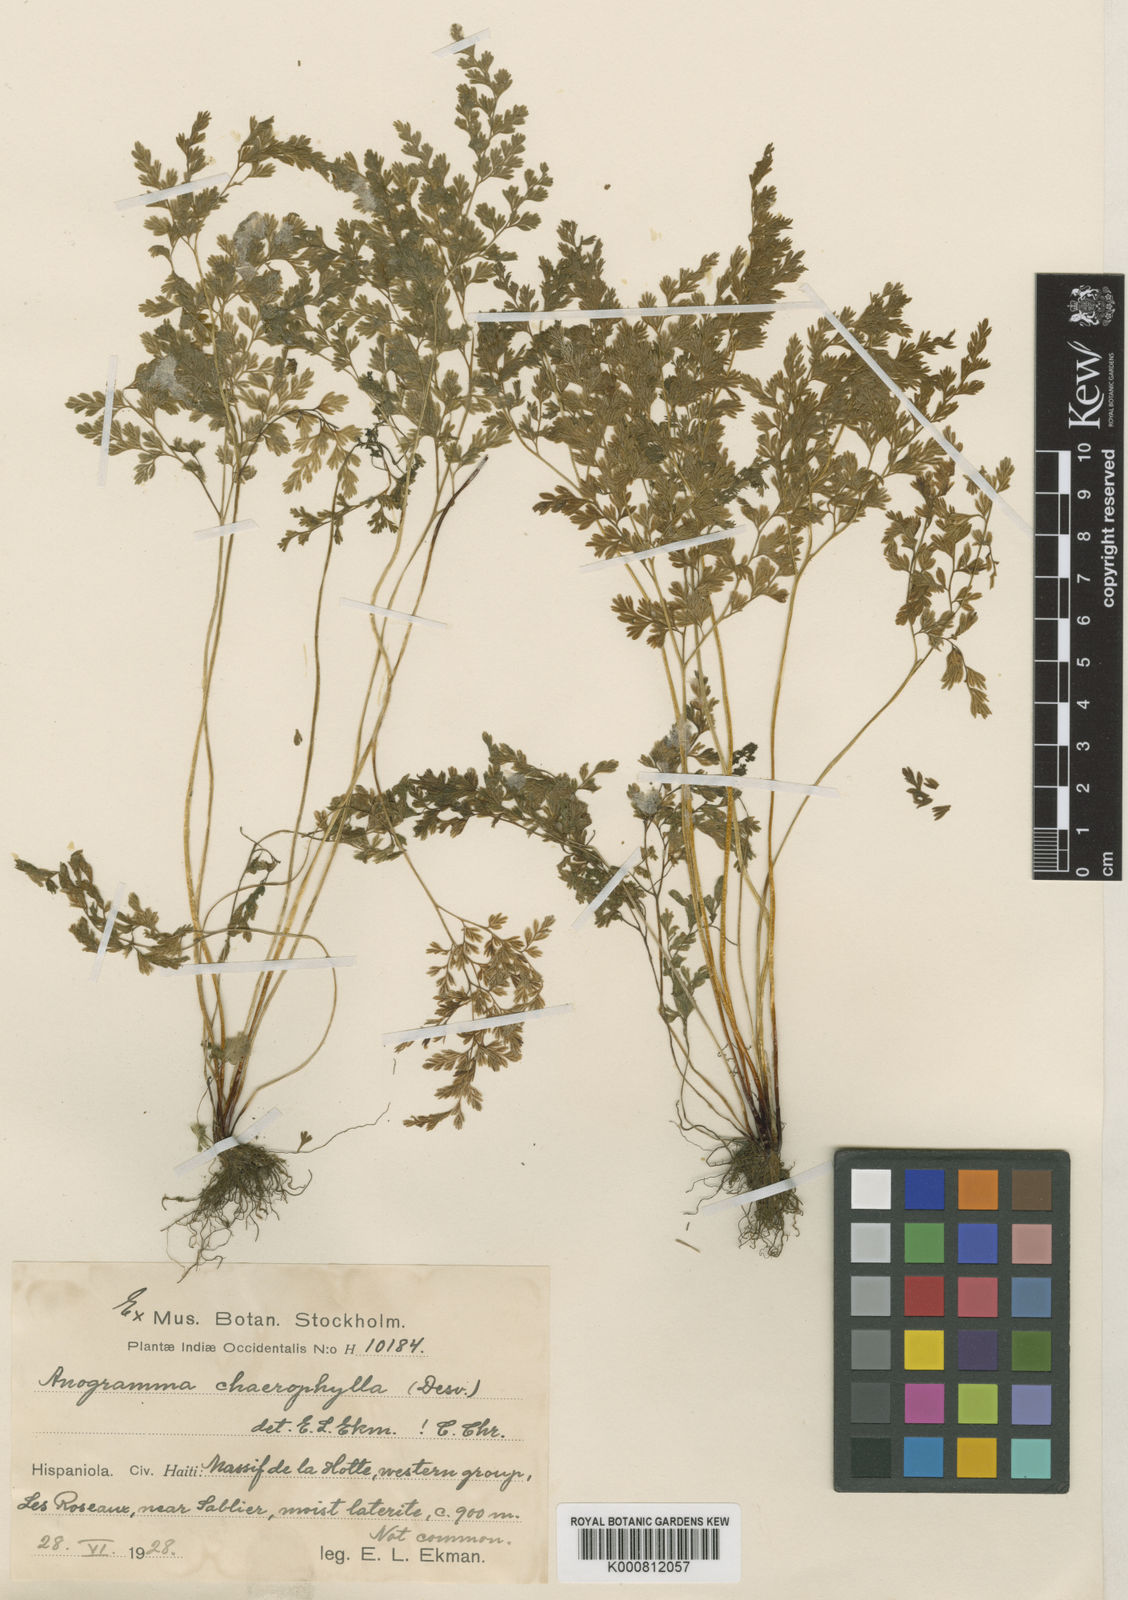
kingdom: Plantae
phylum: Tracheophyta
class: Polypodiopsida
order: Polypodiales
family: Pteridaceae
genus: Gastoniella
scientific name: Gastoniella chaerophylla
